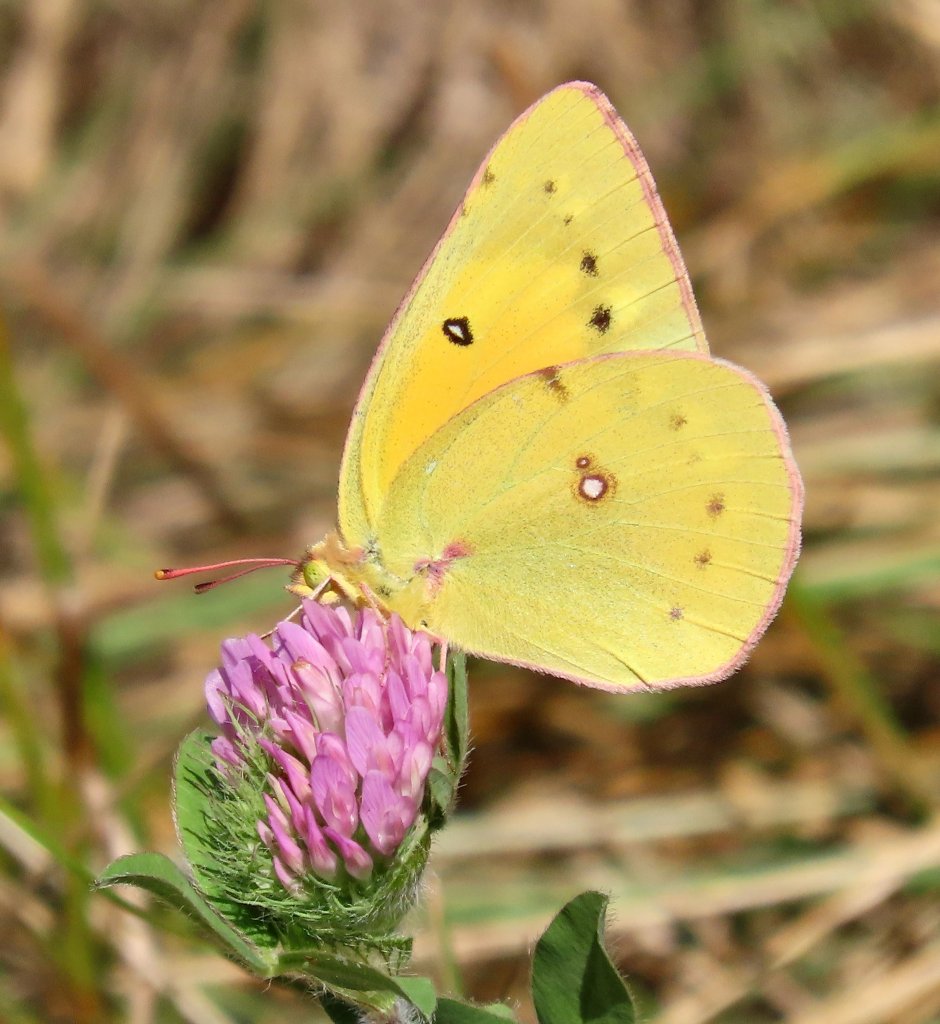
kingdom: Animalia
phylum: Arthropoda
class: Insecta
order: Lepidoptera
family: Pieridae
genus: Colias
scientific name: Colias eurytheme
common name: Orange Sulphur
